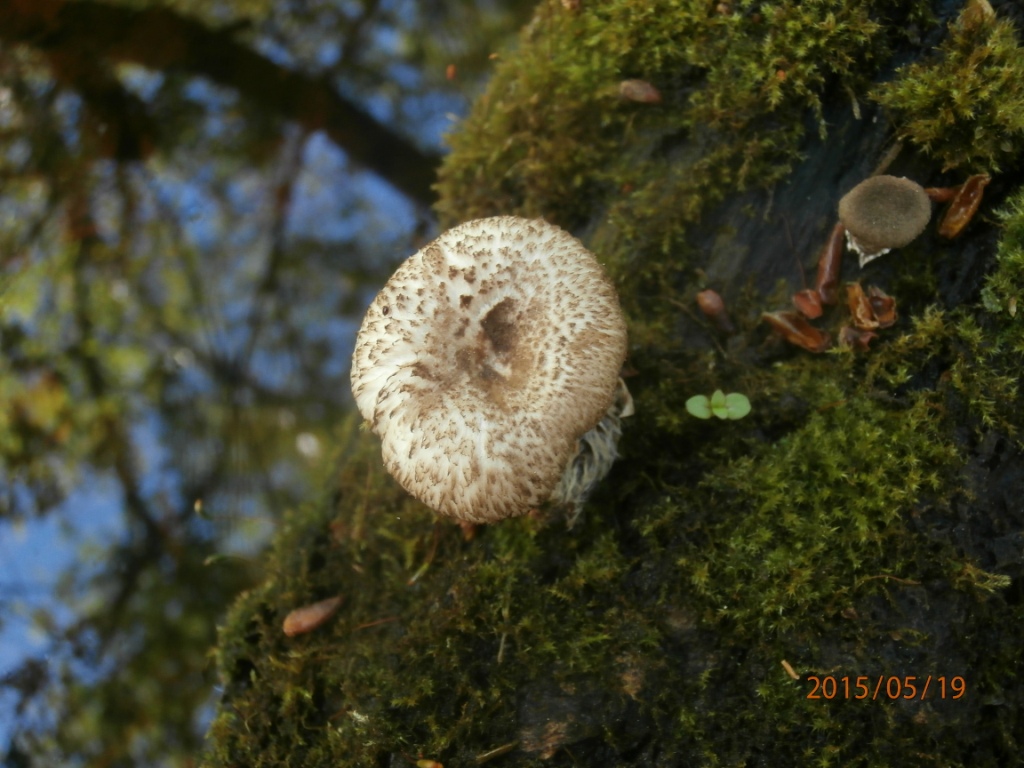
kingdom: Fungi
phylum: Basidiomycota
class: Agaricomycetes
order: Polyporales
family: Polyporaceae
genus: Lentinus
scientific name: Lentinus tigrinus
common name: tigerhat
